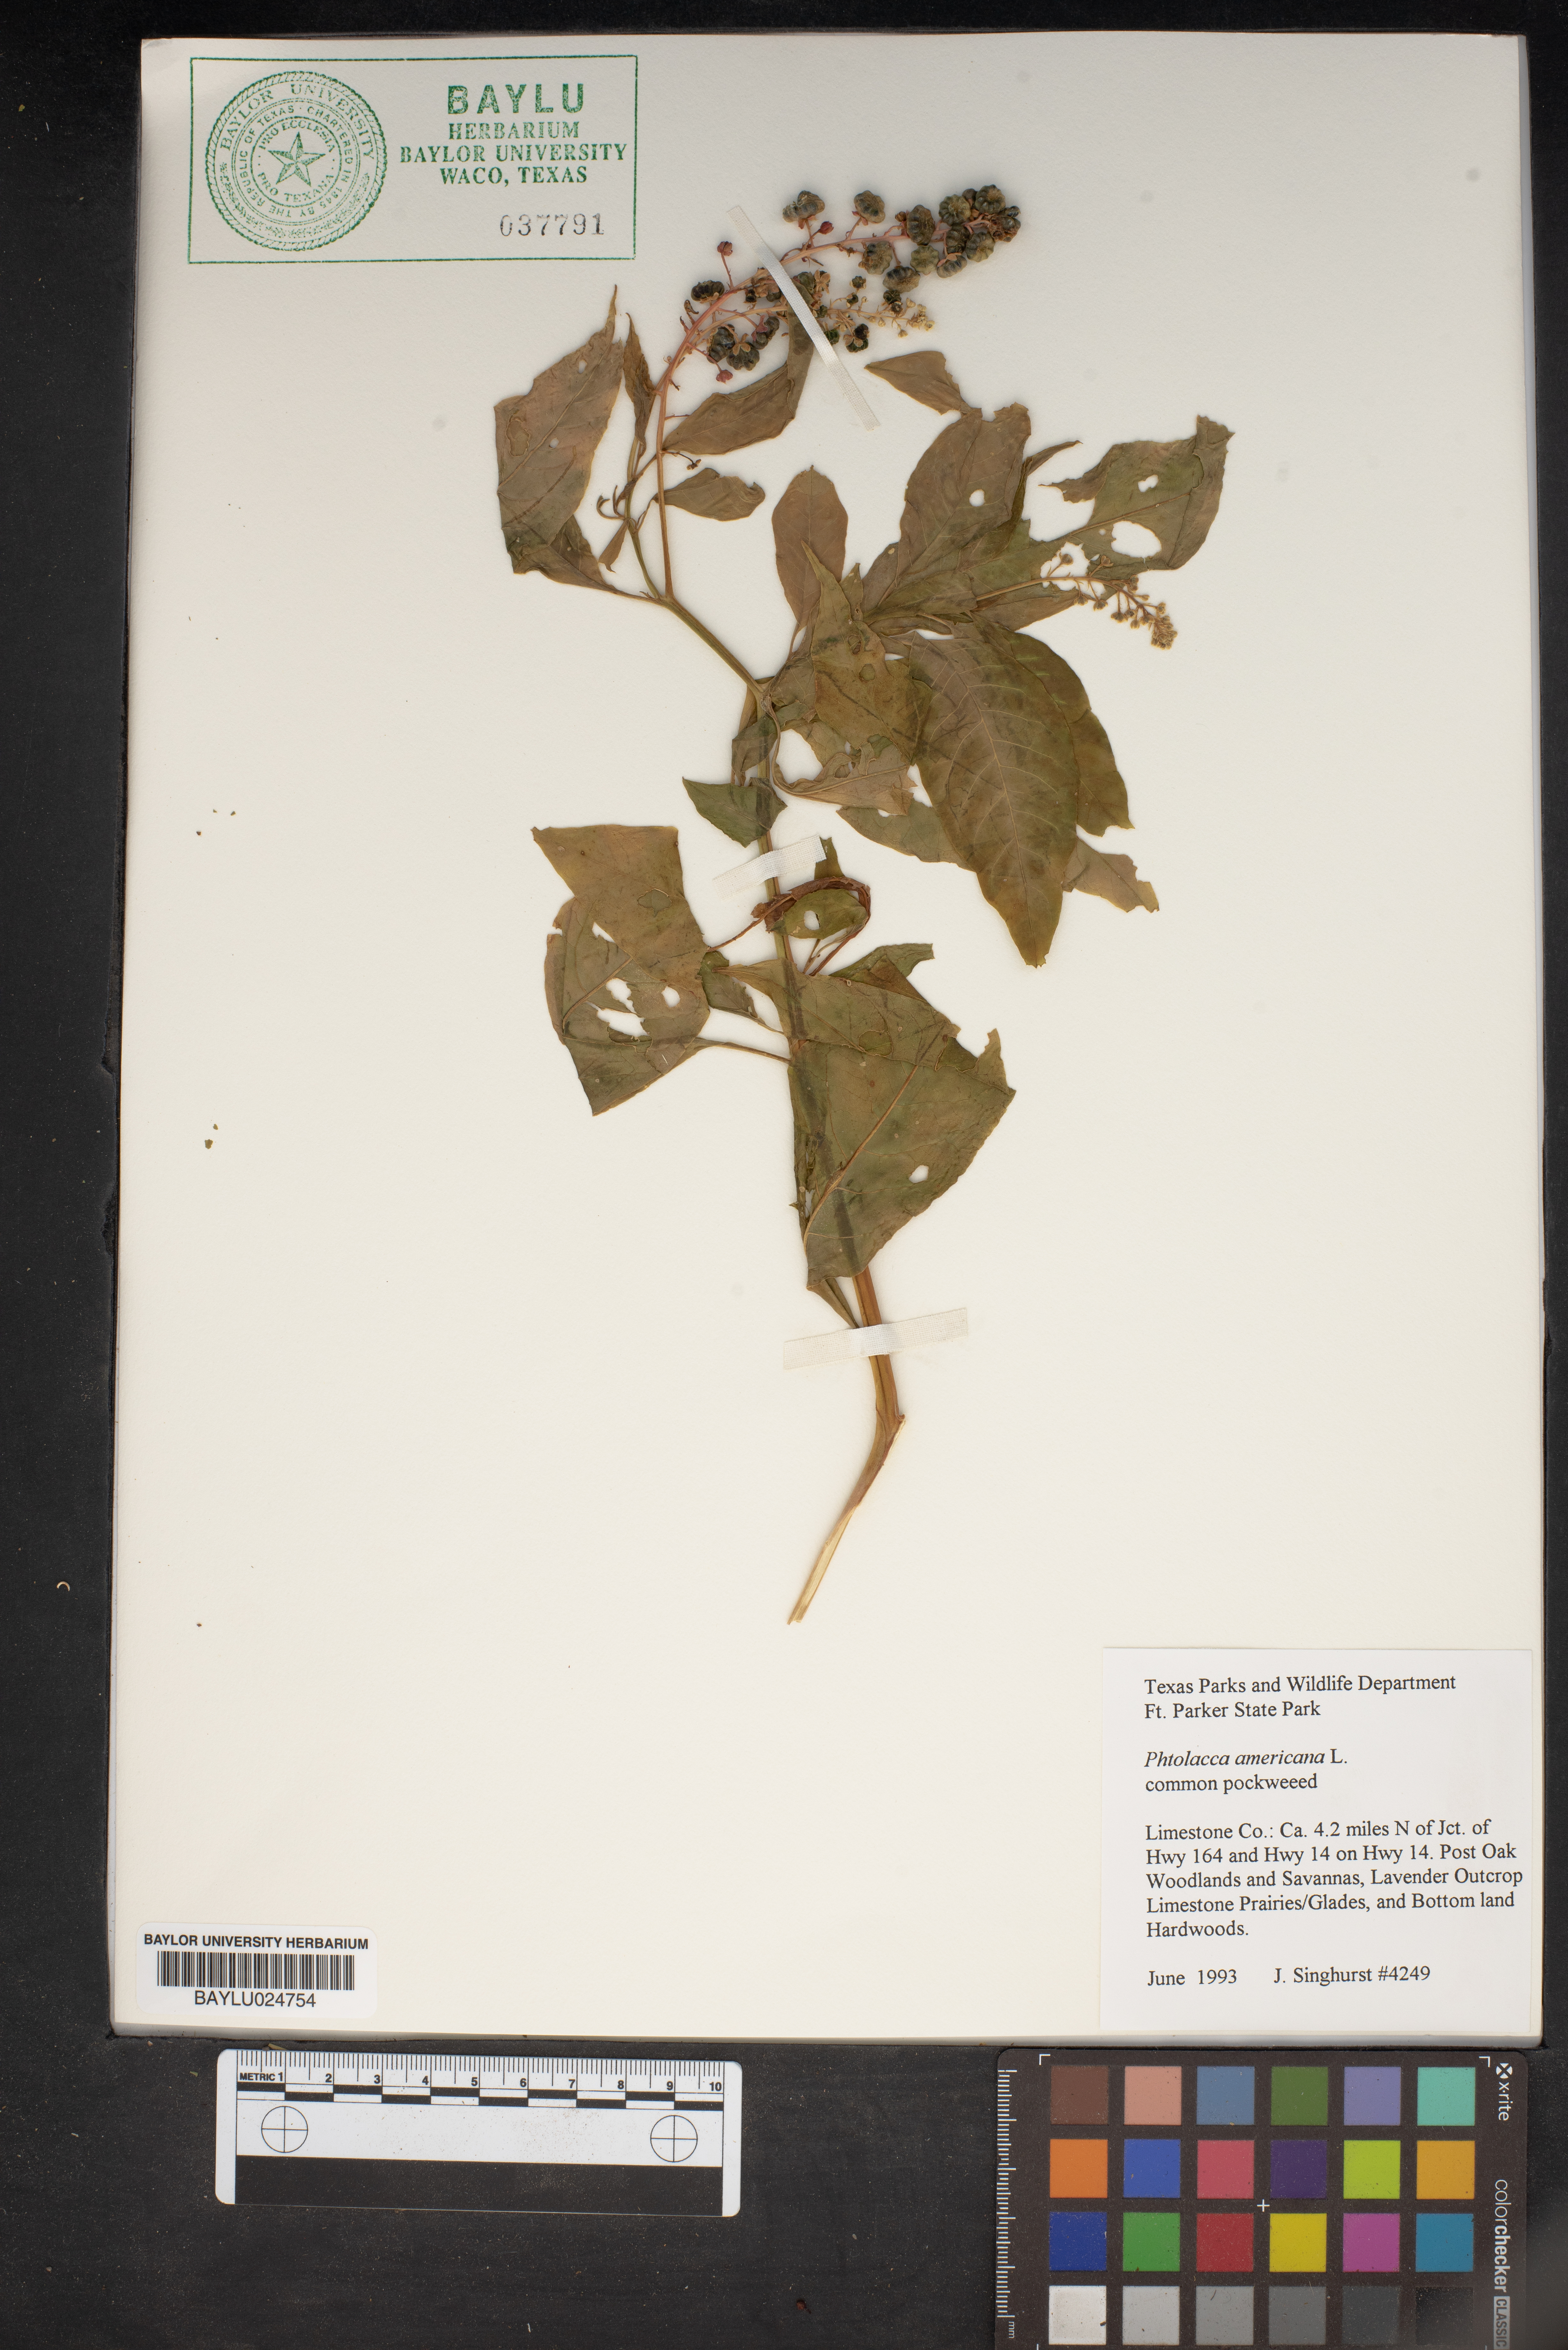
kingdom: Plantae
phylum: Tracheophyta
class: Magnoliopsida
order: Caryophyllales
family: Phytolaccaceae
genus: Phytolacca
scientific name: Phytolacca americana
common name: American pokeweed
